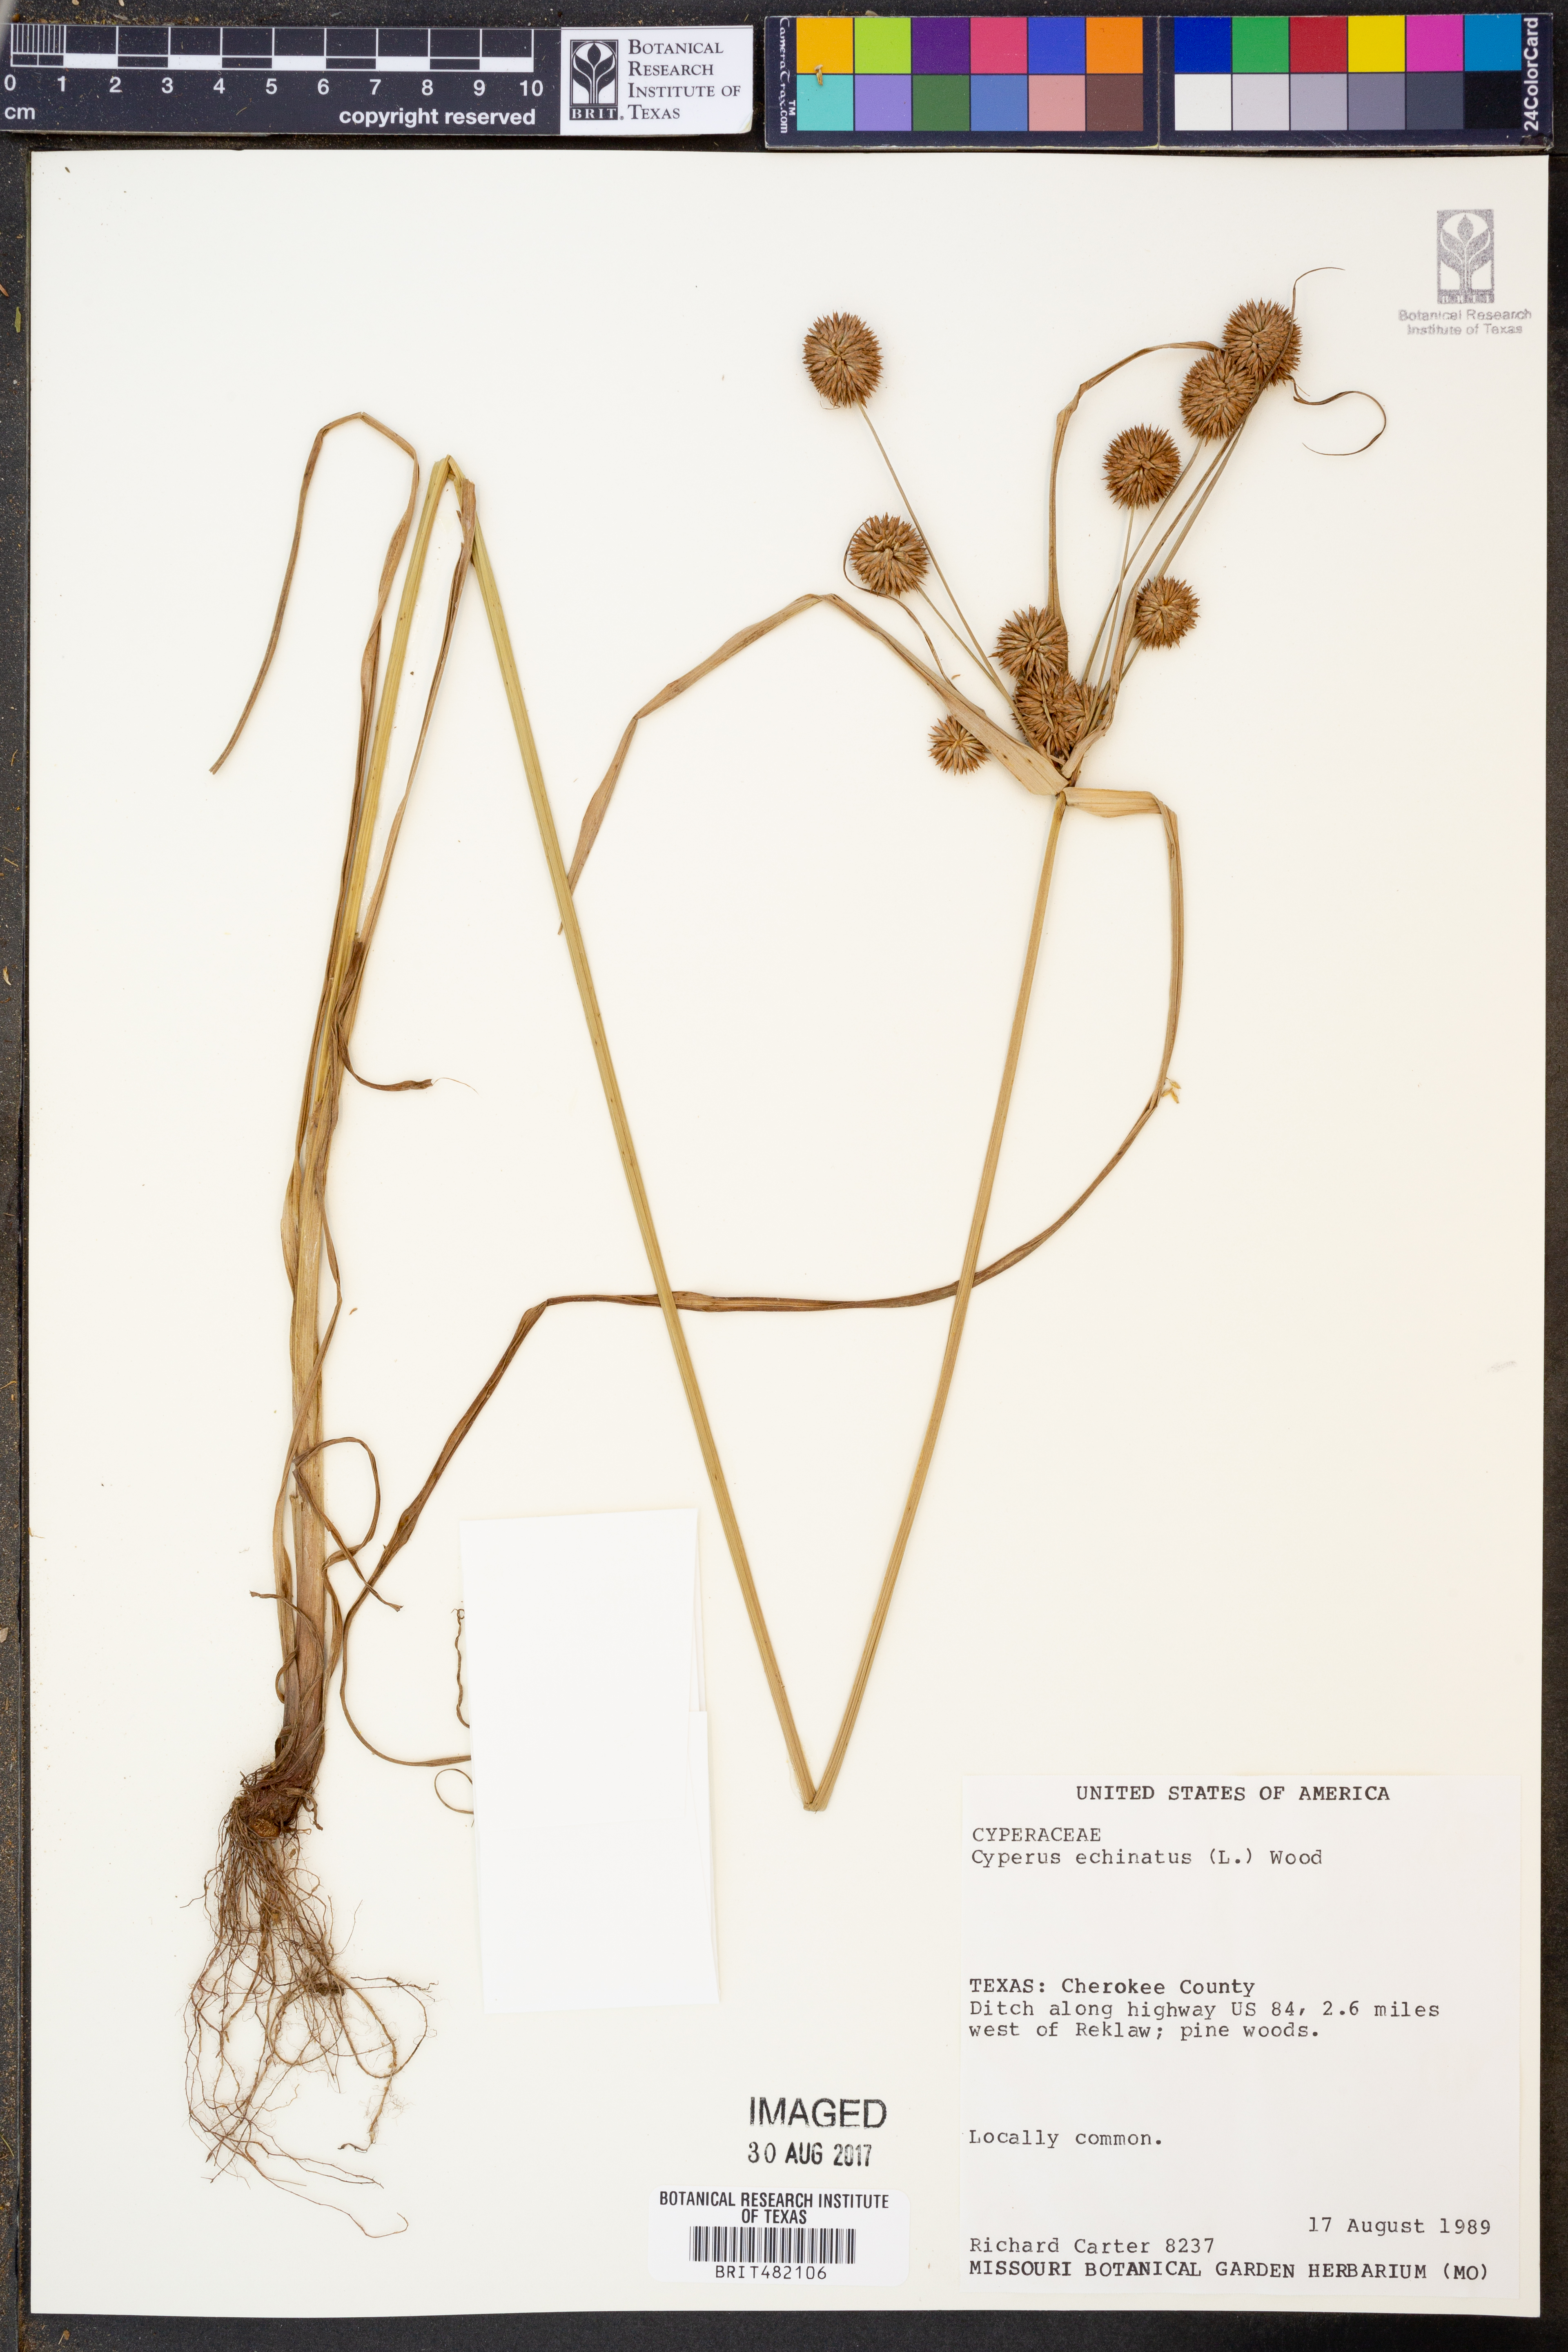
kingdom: Plantae
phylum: Tracheophyta
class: Liliopsida
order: Poales
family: Cyperaceae
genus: Cyperus
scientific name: Cyperus echinatus
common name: Teasel sedge
